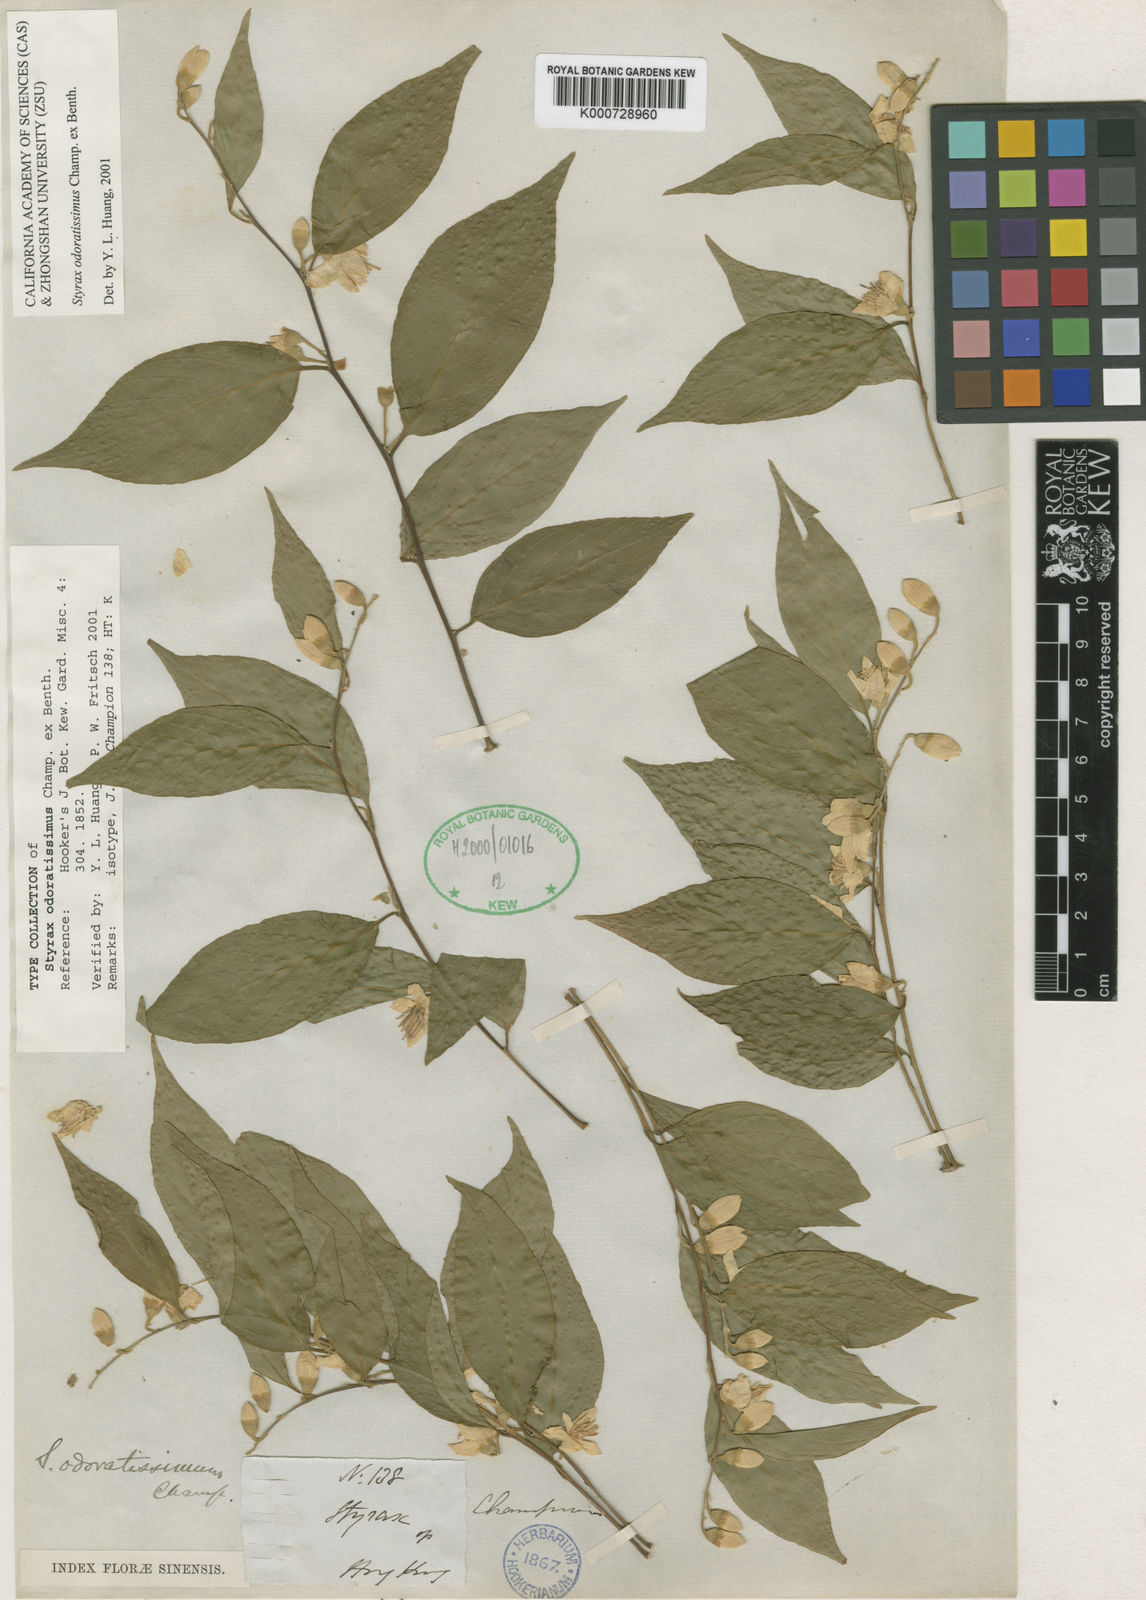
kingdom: Plantae
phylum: Tracheophyta
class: Magnoliopsida
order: Ericales
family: Styracaceae
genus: Styrax
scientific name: Styrax odoratissimus
